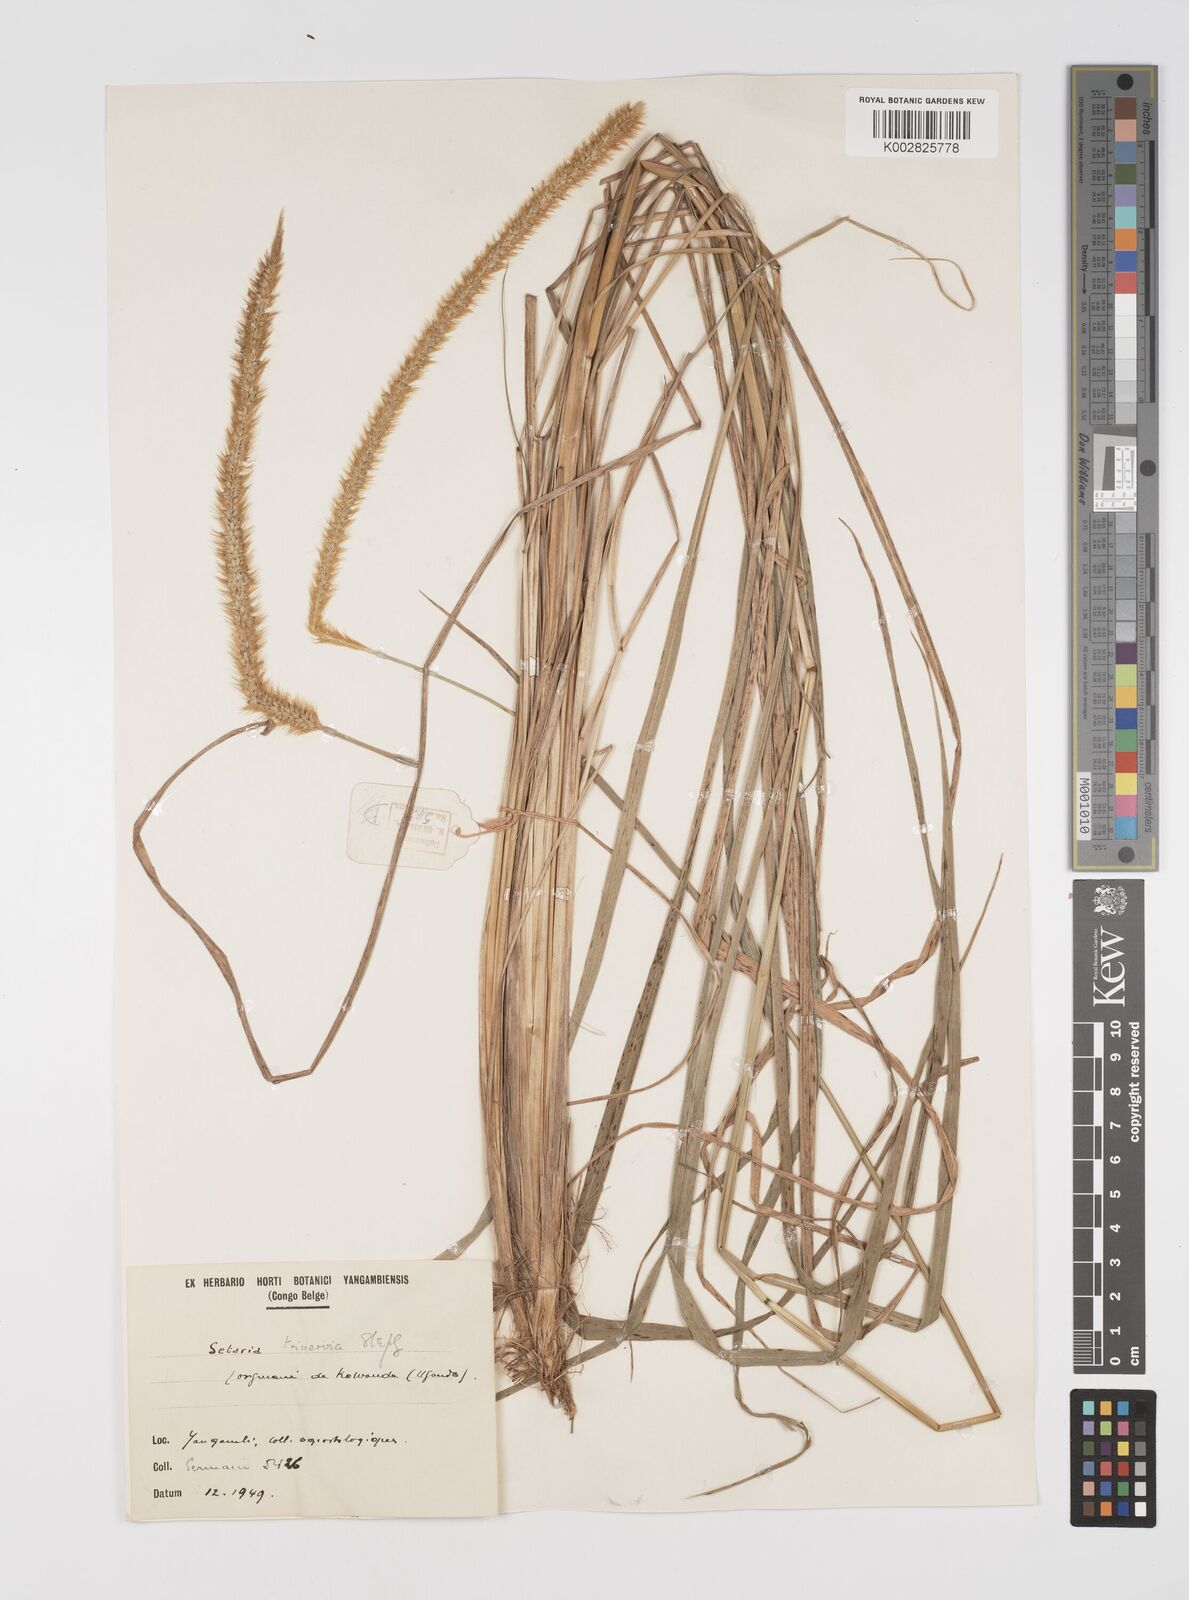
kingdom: Plantae
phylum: Tracheophyta
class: Liliopsida
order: Poales
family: Poaceae
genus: Setaria
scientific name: Setaria sphacelata
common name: African bristlegrass
